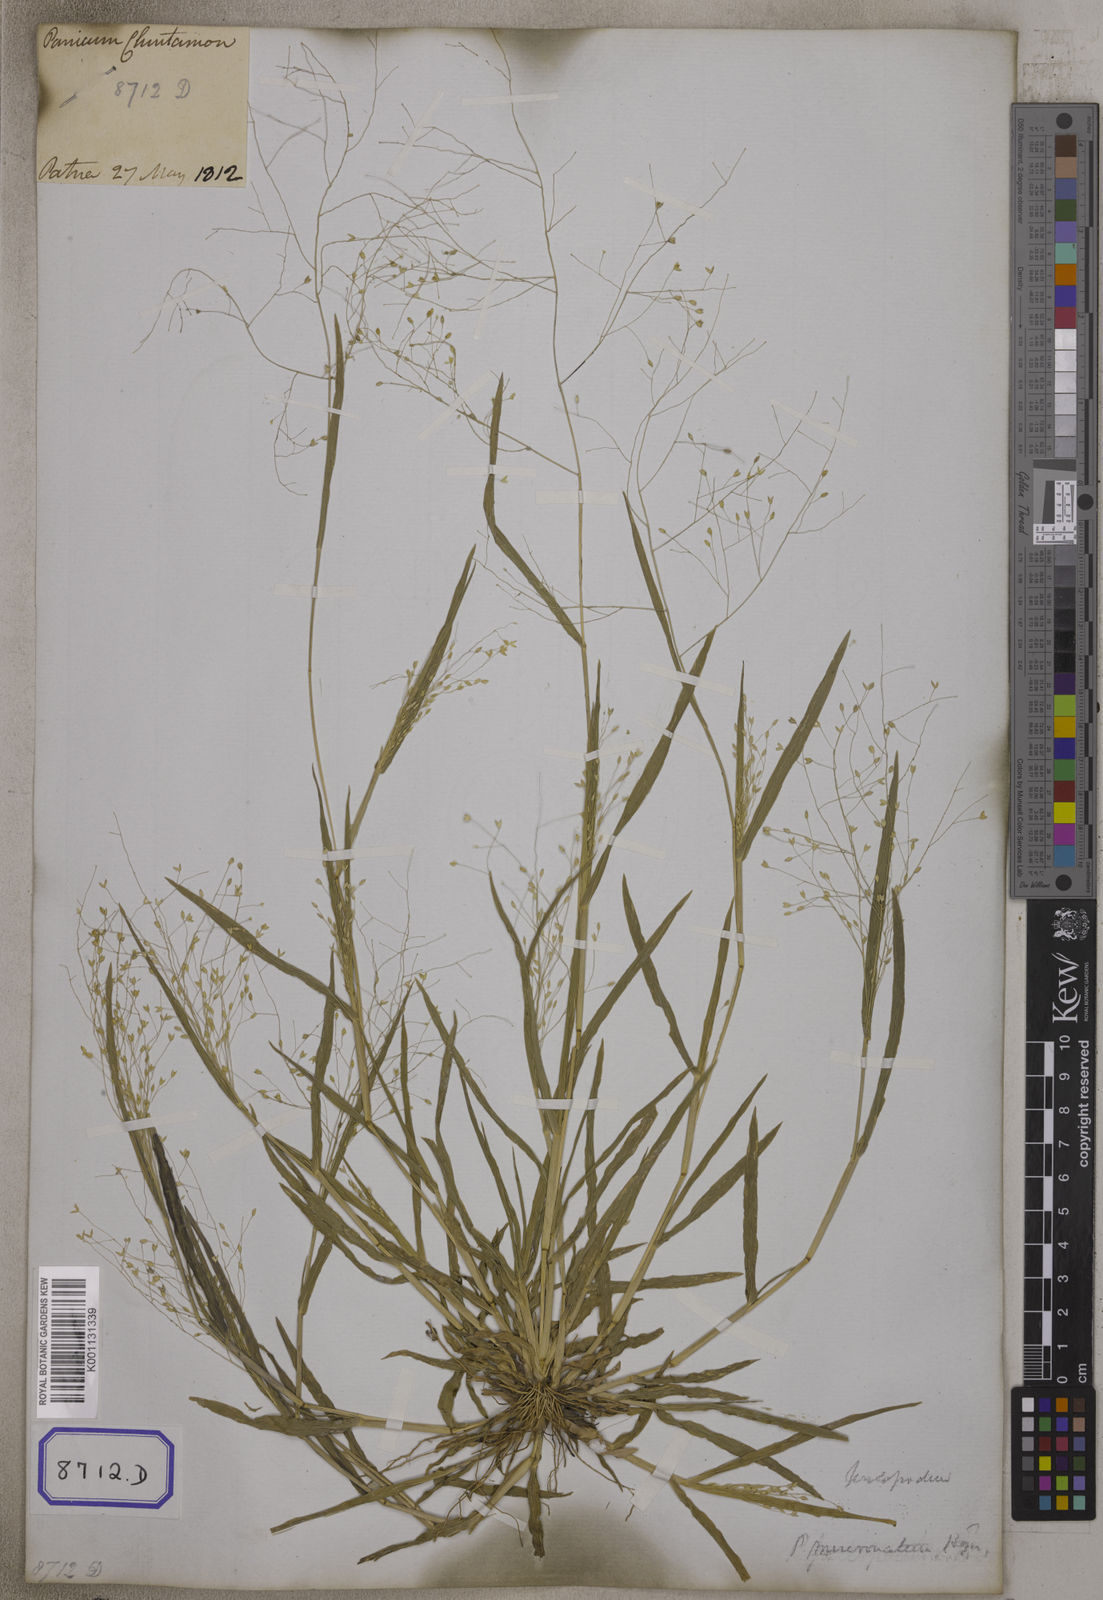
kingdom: Plantae
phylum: Tracheophyta
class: Liliopsida
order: Poales
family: Poaceae
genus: Panicum
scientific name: Panicum antidotale
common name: Blue panicum
